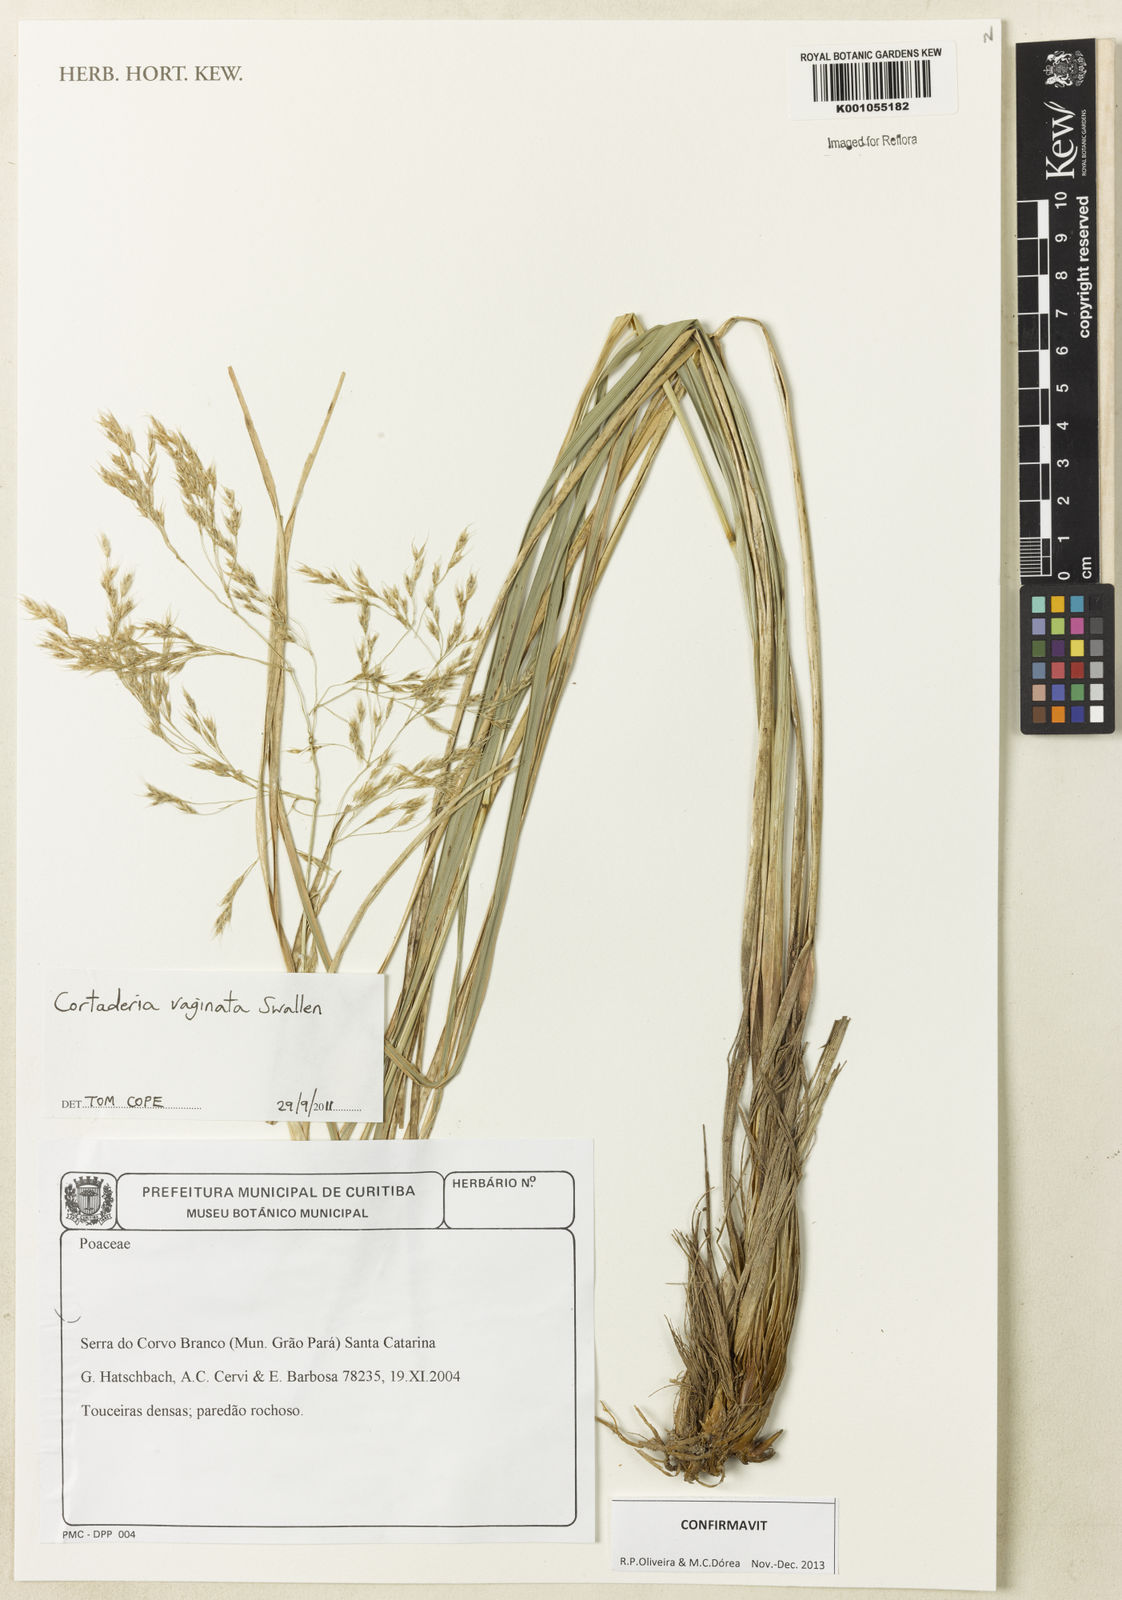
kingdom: Plantae
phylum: Tracheophyta
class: Liliopsida
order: Poales
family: Poaceae
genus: Cortaderia
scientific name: Cortaderia vaginata
